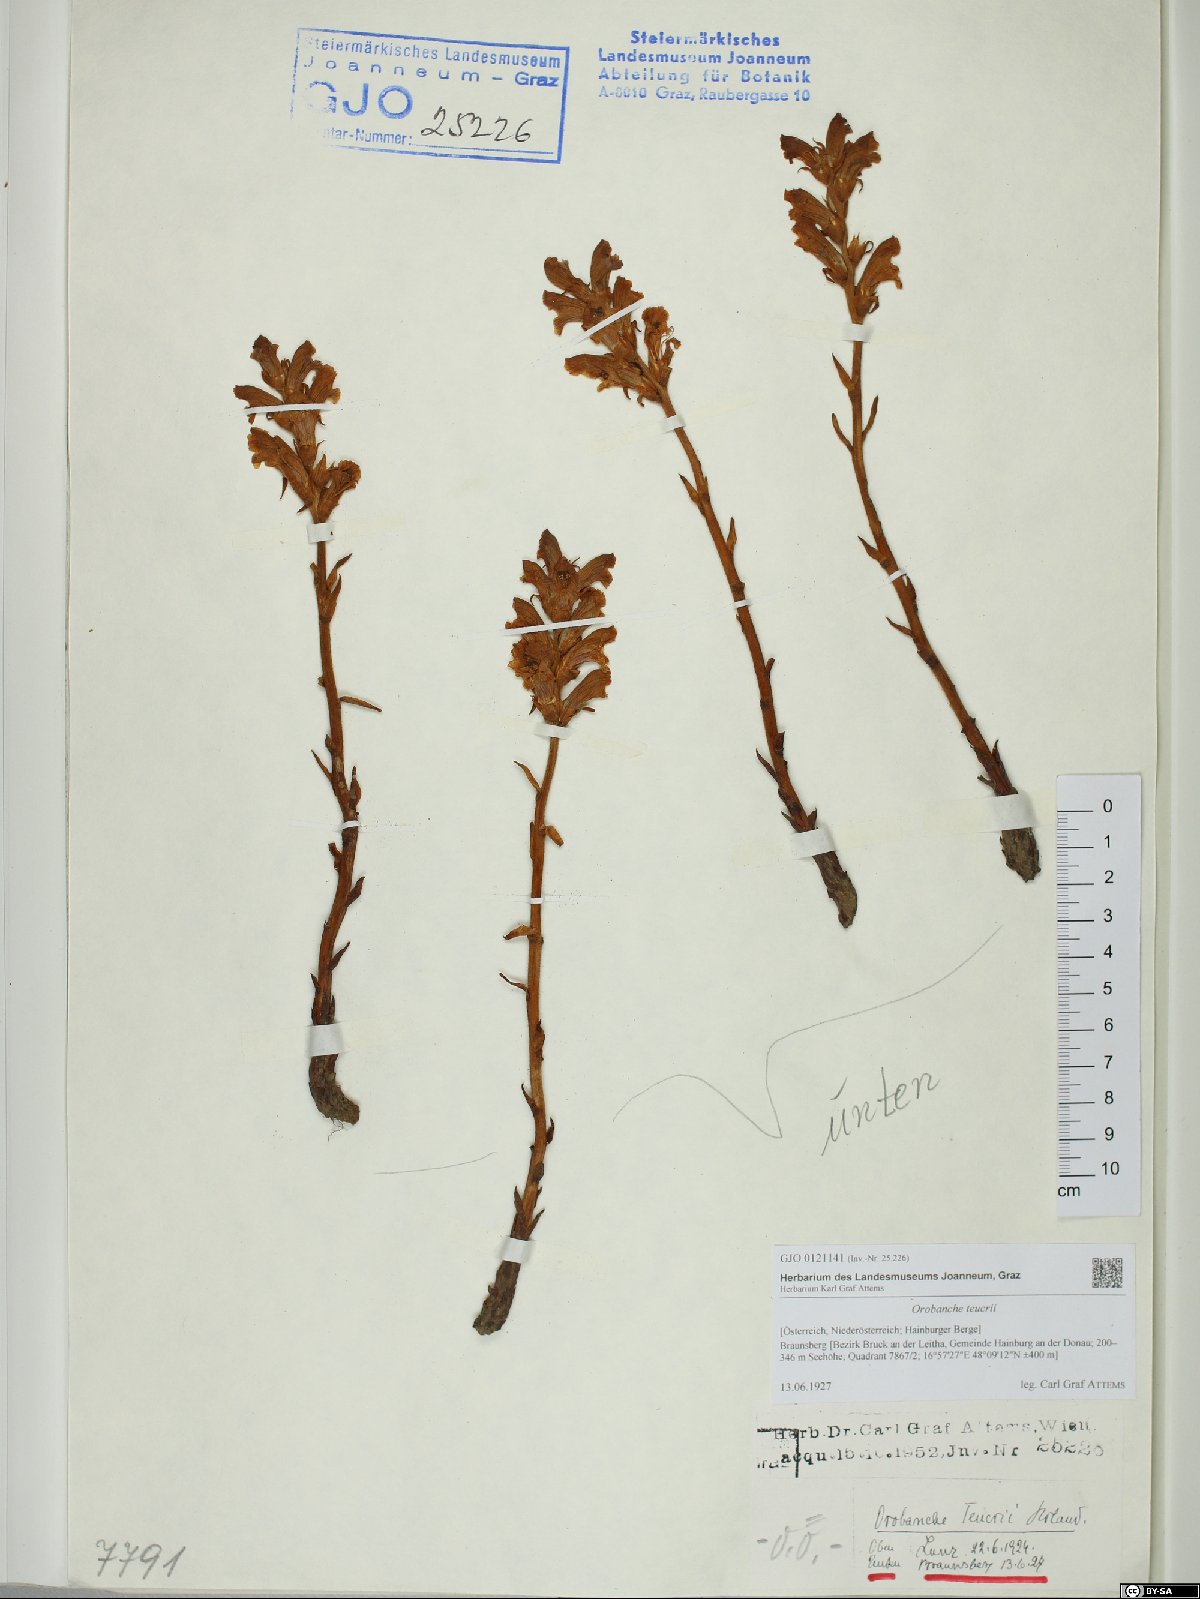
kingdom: Plantae
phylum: Tracheophyta
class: Magnoliopsida
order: Lamiales
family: Orobanchaceae
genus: Orobanche
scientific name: Orobanche teucrii
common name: Germander broomrape
